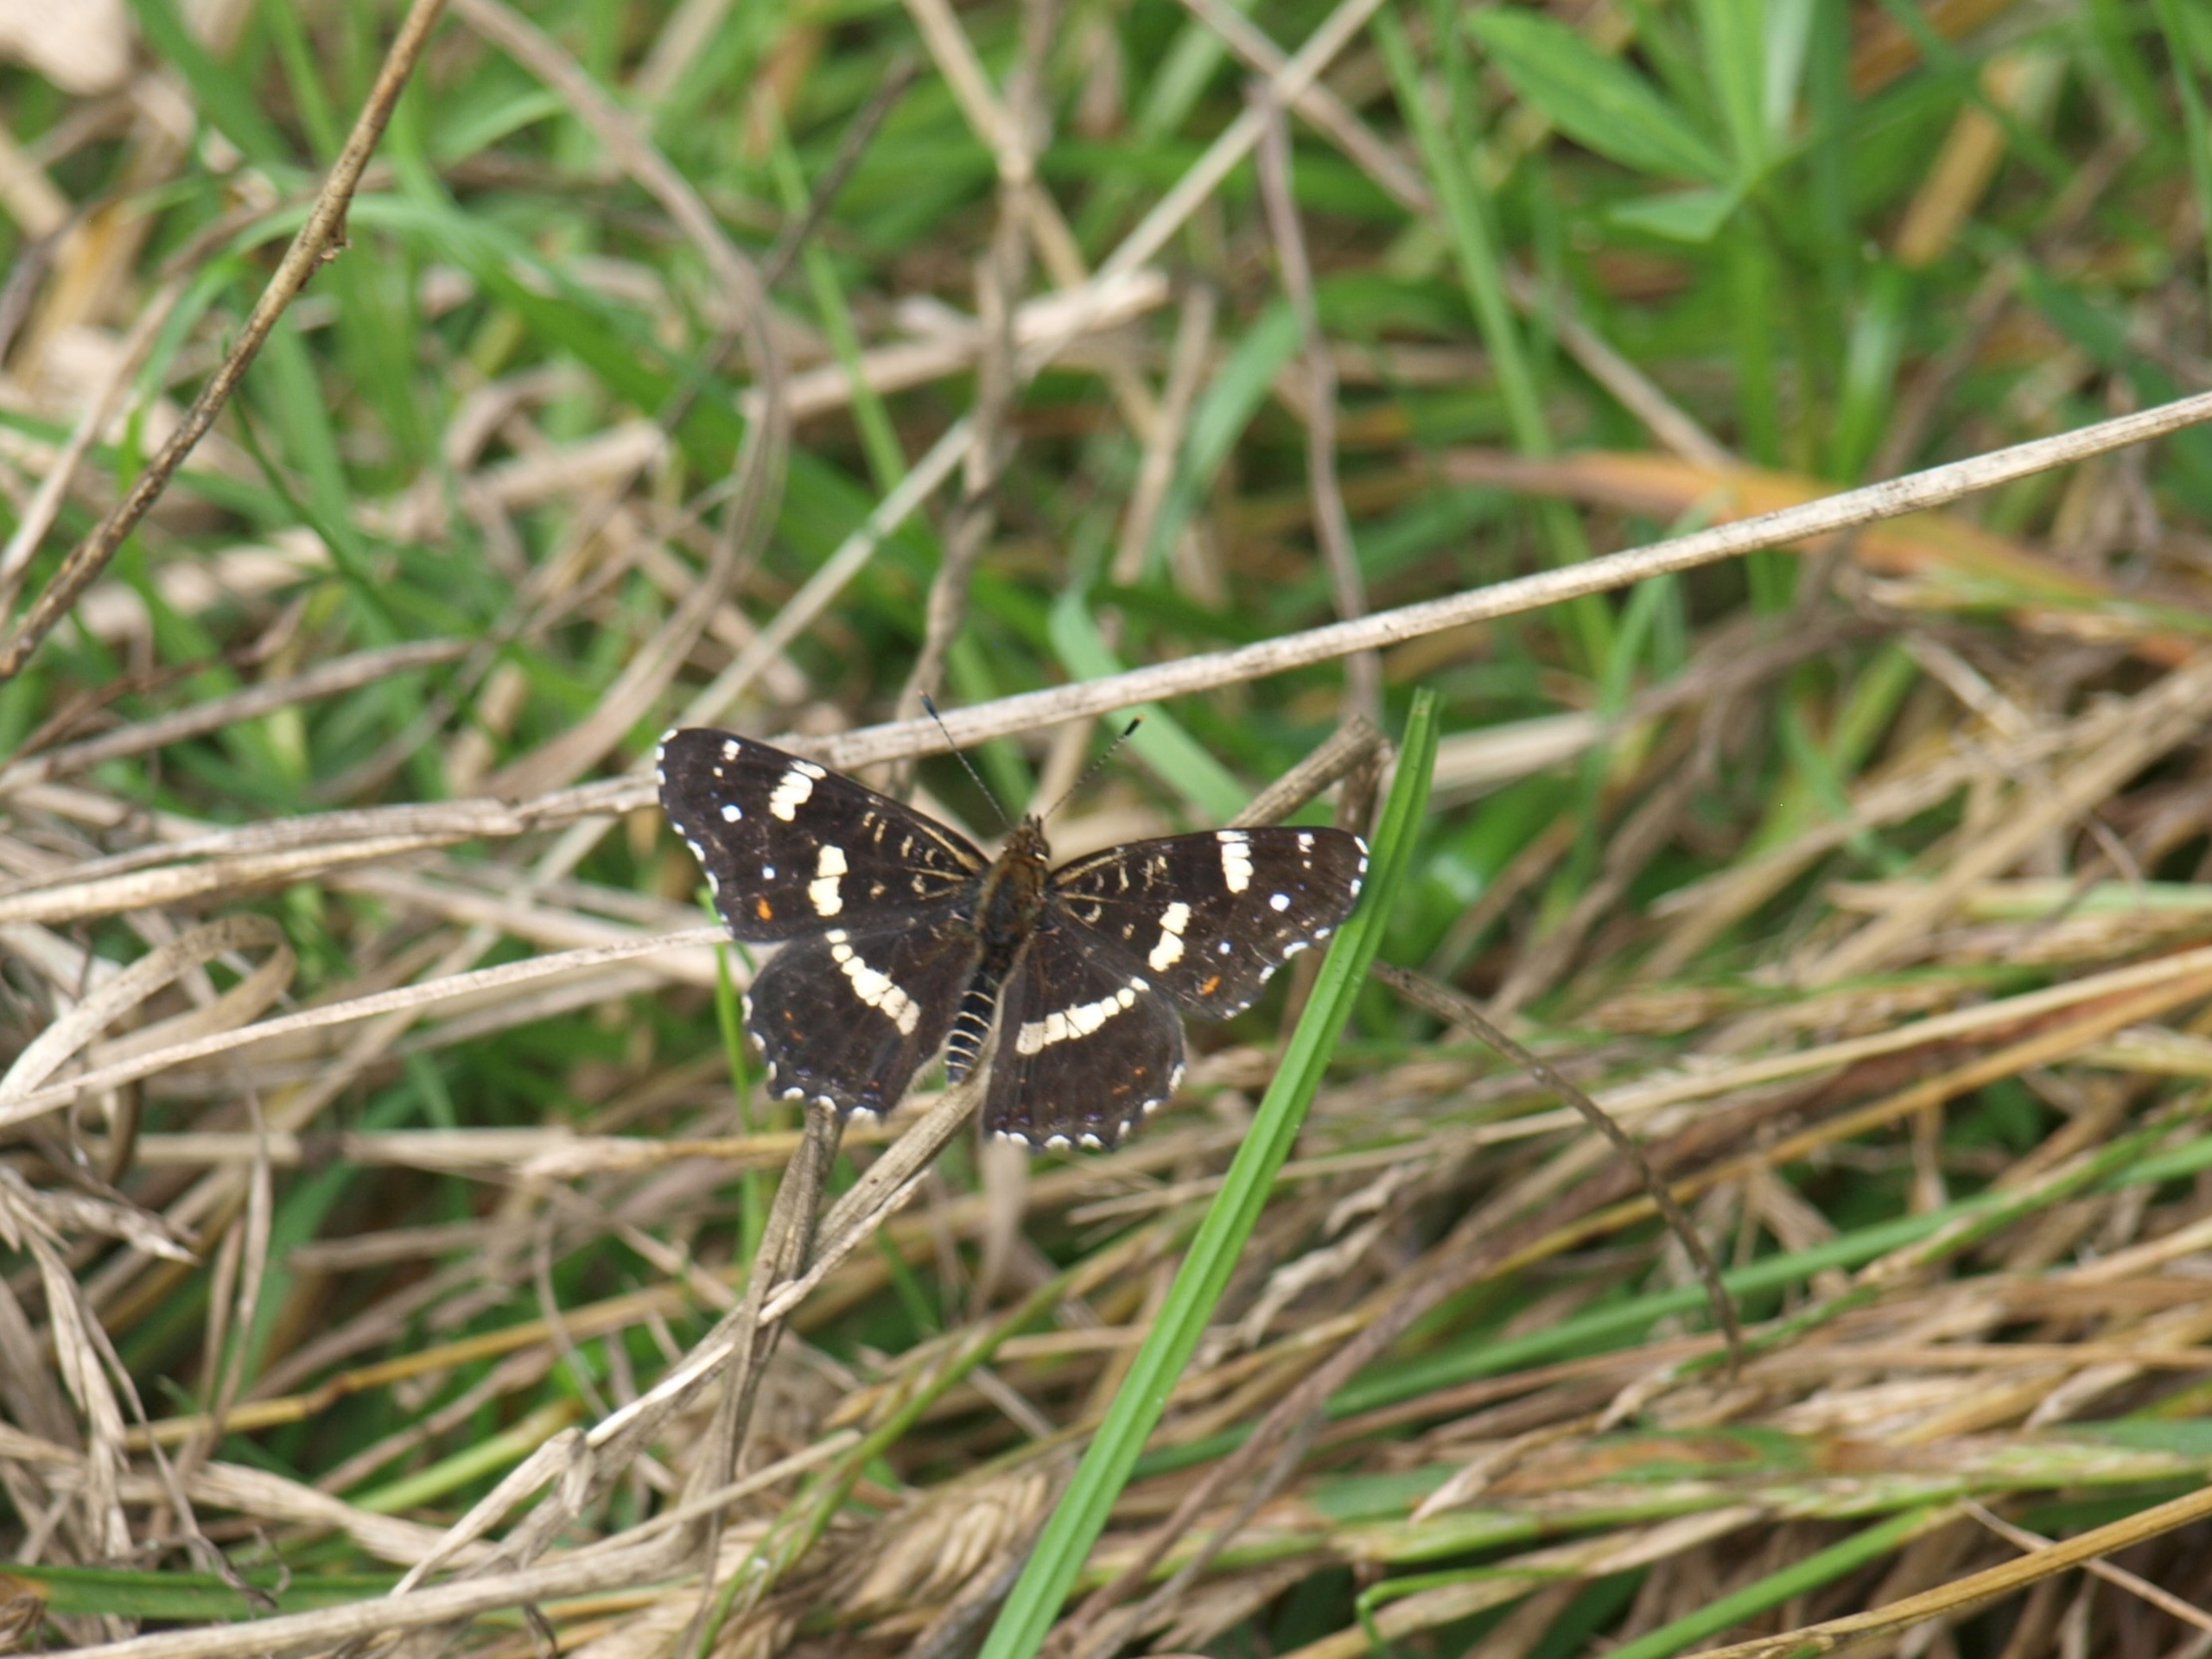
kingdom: Animalia
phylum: Arthropoda
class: Insecta
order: Lepidoptera
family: Nymphalidae
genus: Araschnia
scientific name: Araschnia levana
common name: Nældesommerfugl
